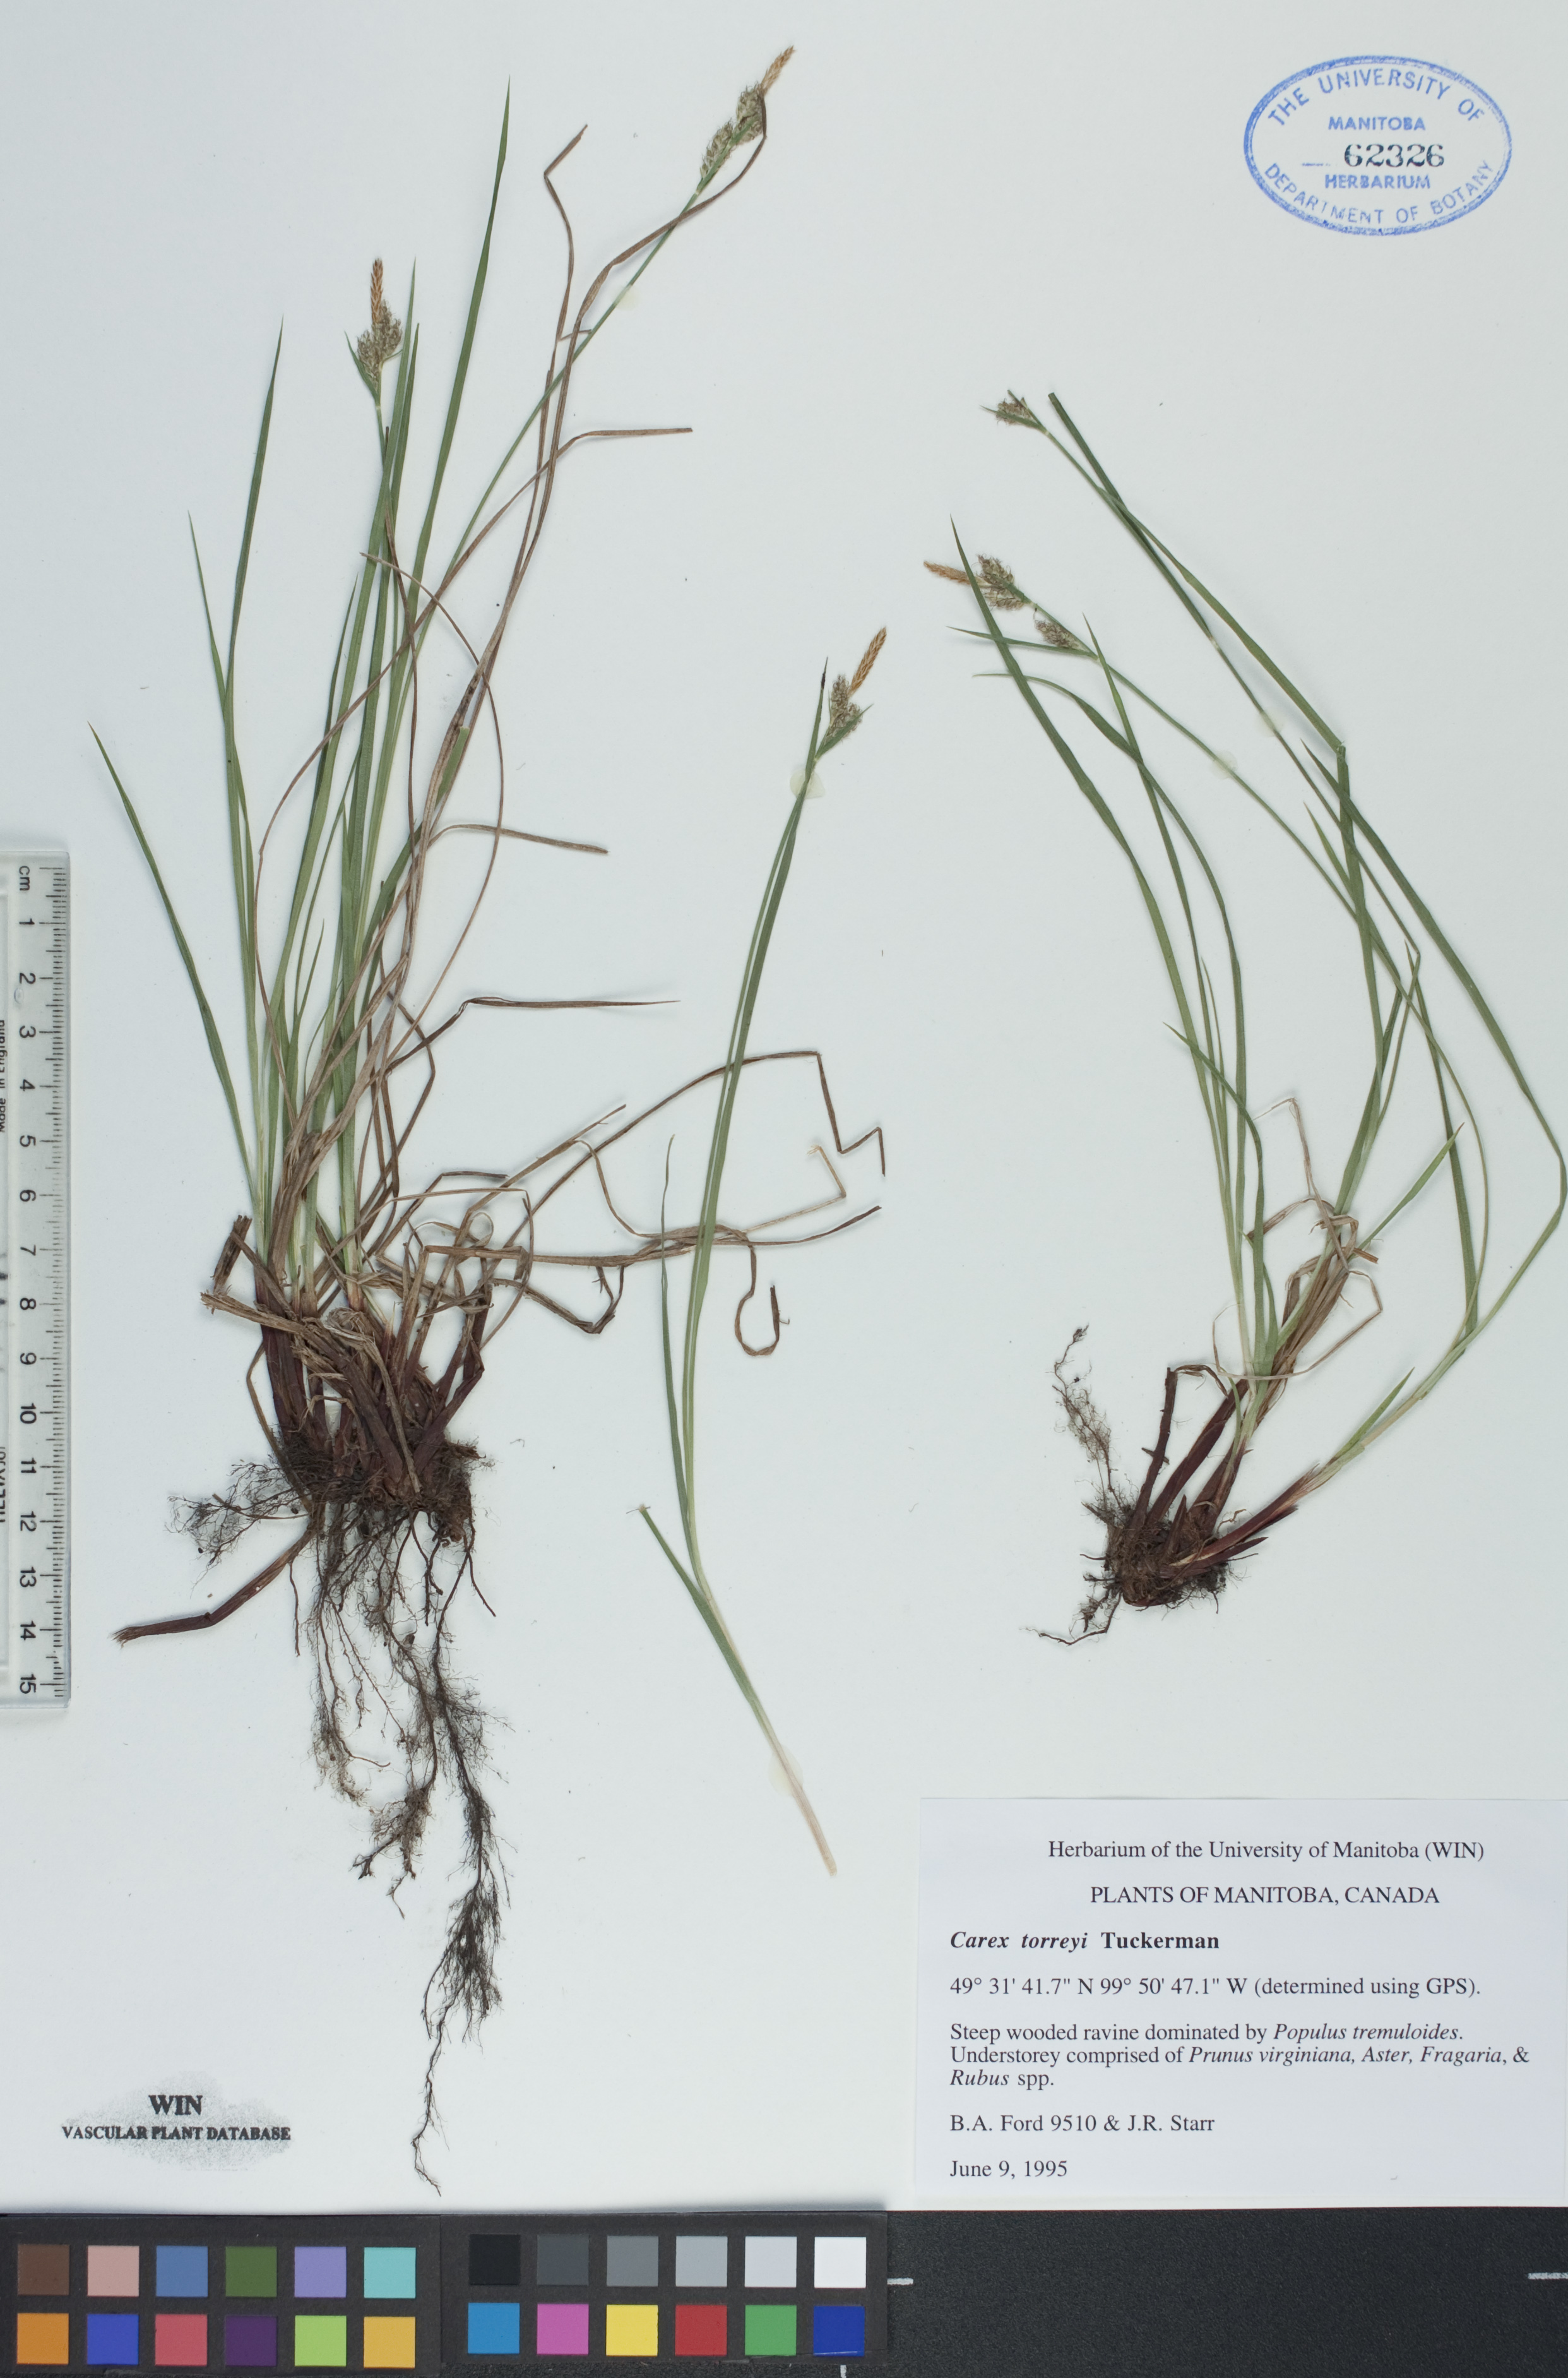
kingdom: Plantae
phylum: Tracheophyta
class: Liliopsida
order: Poales
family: Cyperaceae
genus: Carex
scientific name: Carex torreyi
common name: Torrey's sedge
